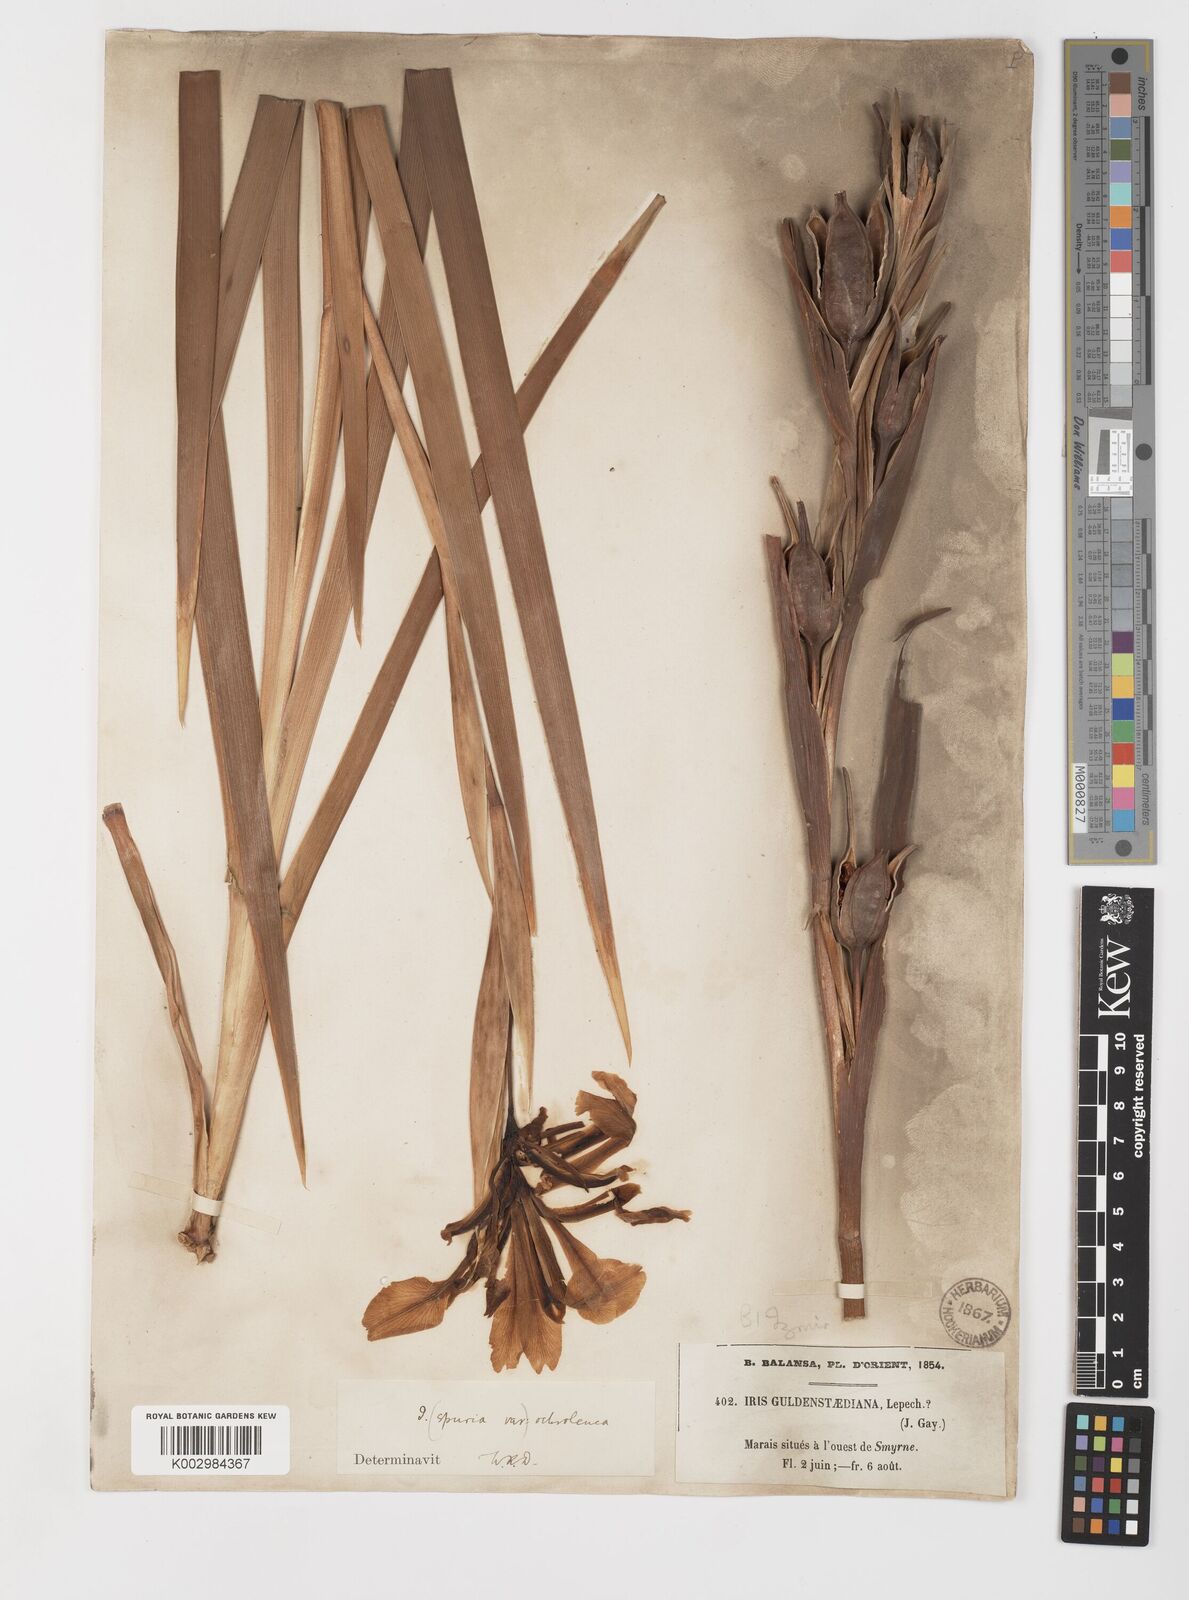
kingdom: Plantae
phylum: Tracheophyta
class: Liliopsida
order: Asparagales
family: Iridaceae
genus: Iris
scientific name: Iris orientalis
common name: Turkish iris
